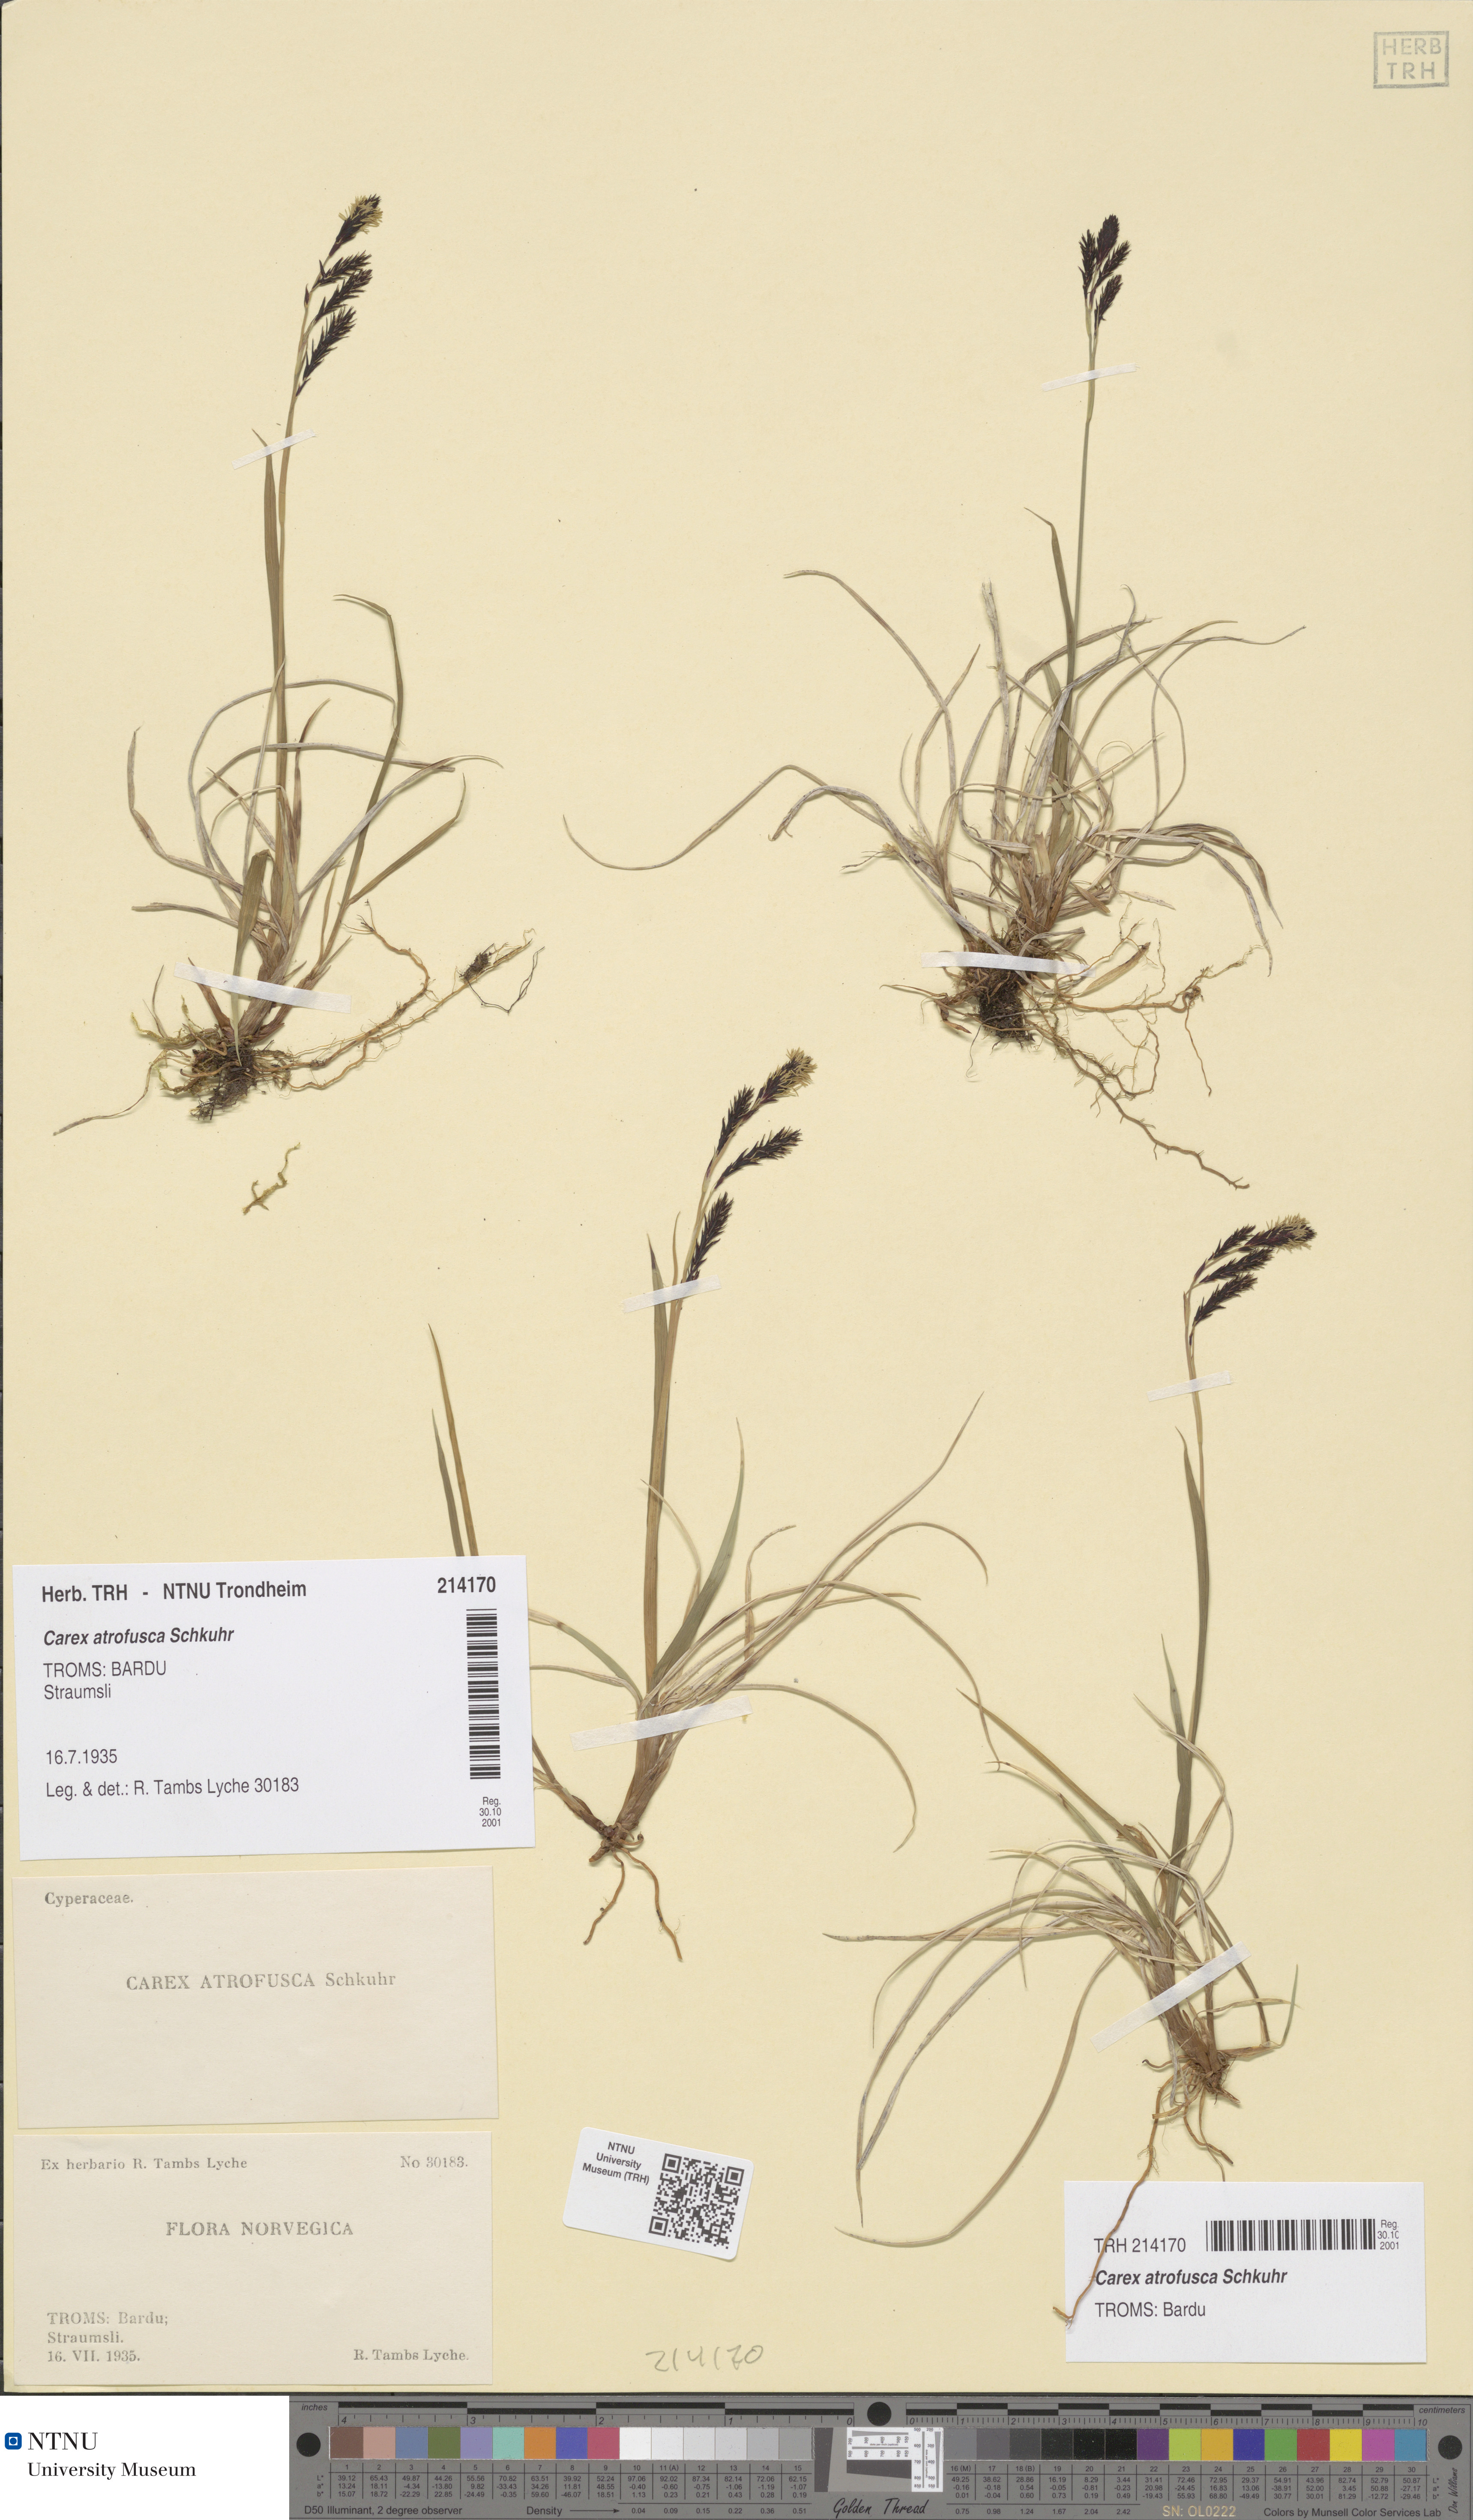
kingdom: Plantae
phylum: Tracheophyta
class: Liliopsida
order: Poales
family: Cyperaceae
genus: Carex
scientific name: Carex atrofusca
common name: Scorched alpine-sedge
